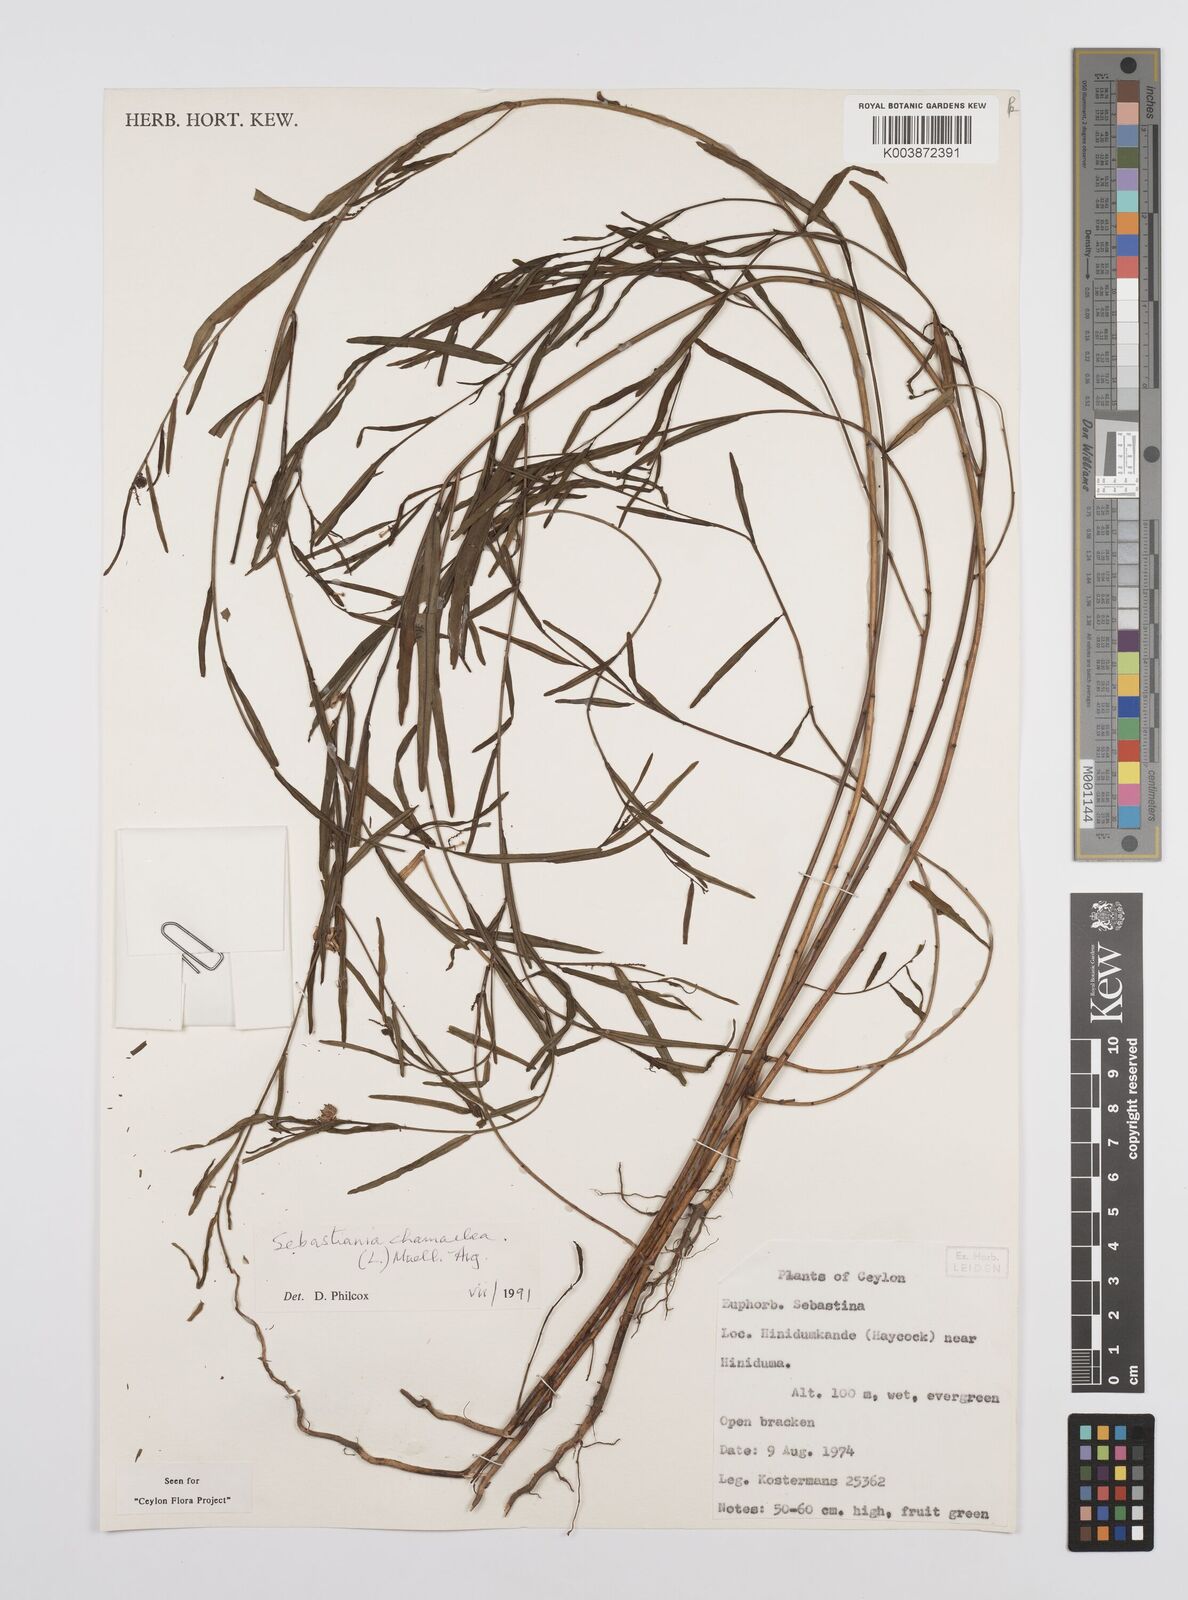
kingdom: Plantae
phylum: Tracheophyta
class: Magnoliopsida
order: Malpighiales
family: Euphorbiaceae
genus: Microstachys
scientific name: Microstachys chamaelea
